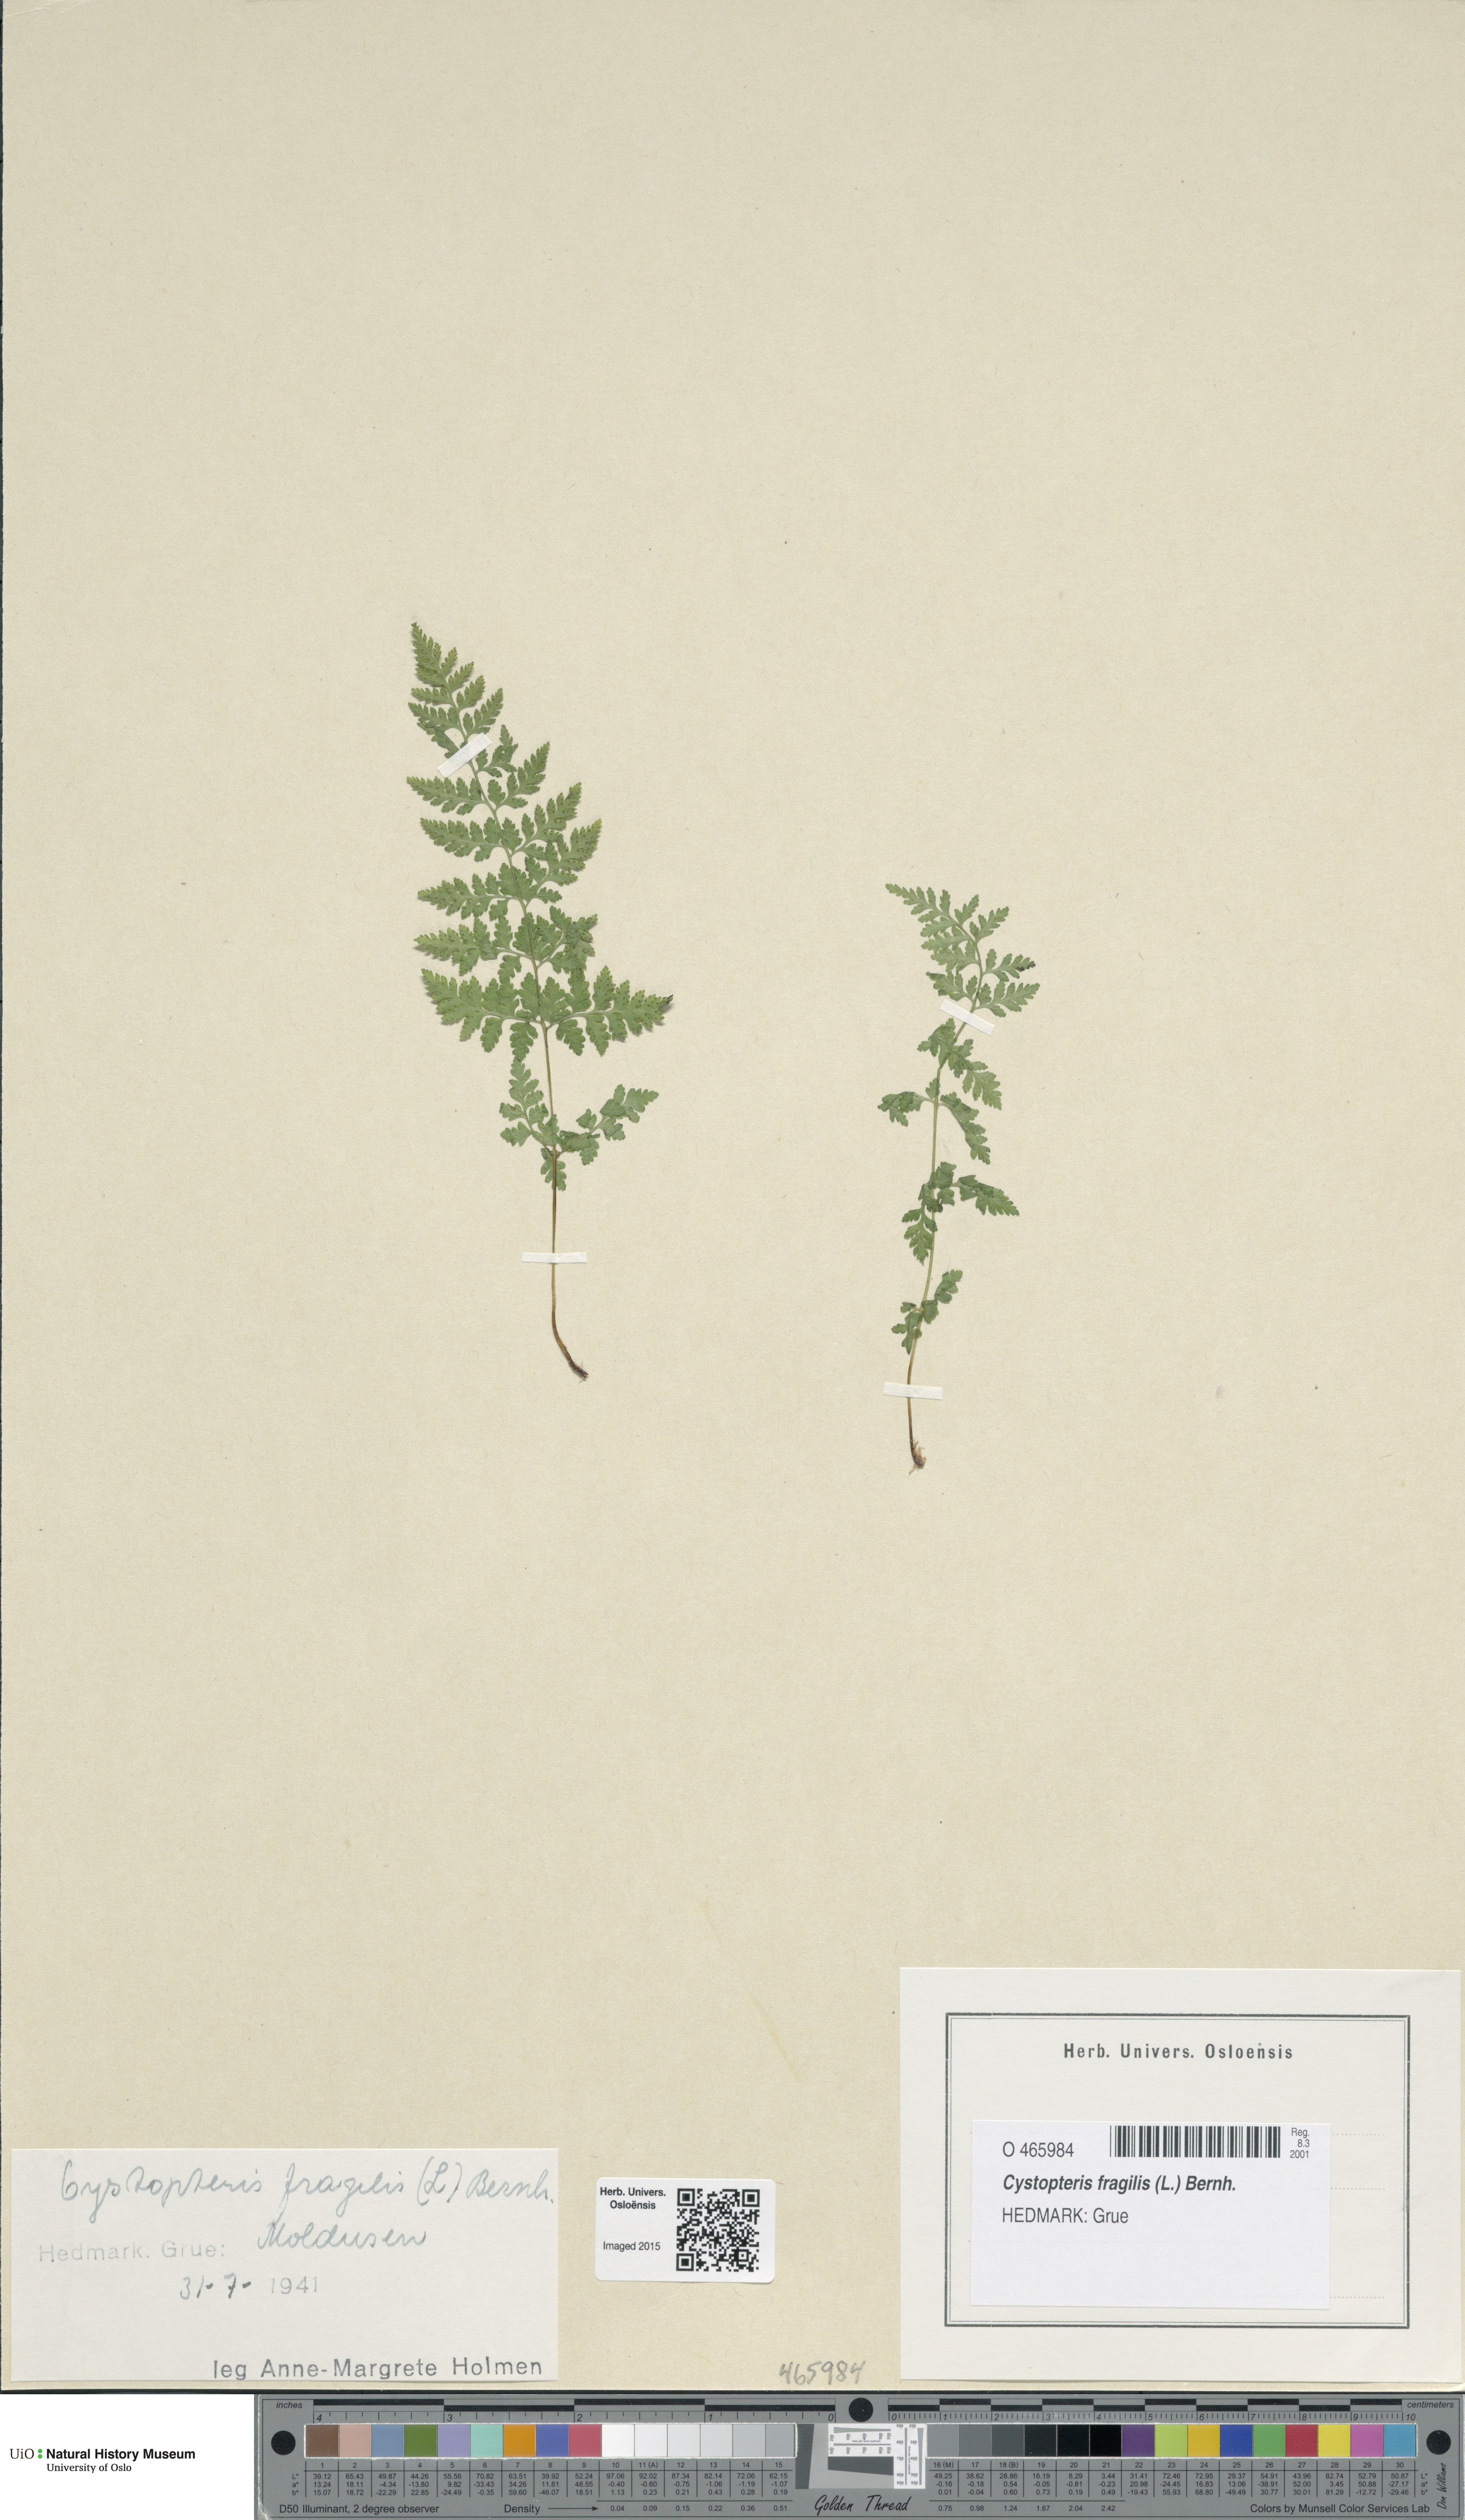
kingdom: Plantae
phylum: Tracheophyta
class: Polypodiopsida
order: Polypodiales
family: Cystopteridaceae
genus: Cystopteris
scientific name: Cystopteris fragilis
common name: Brittle bladder fern
